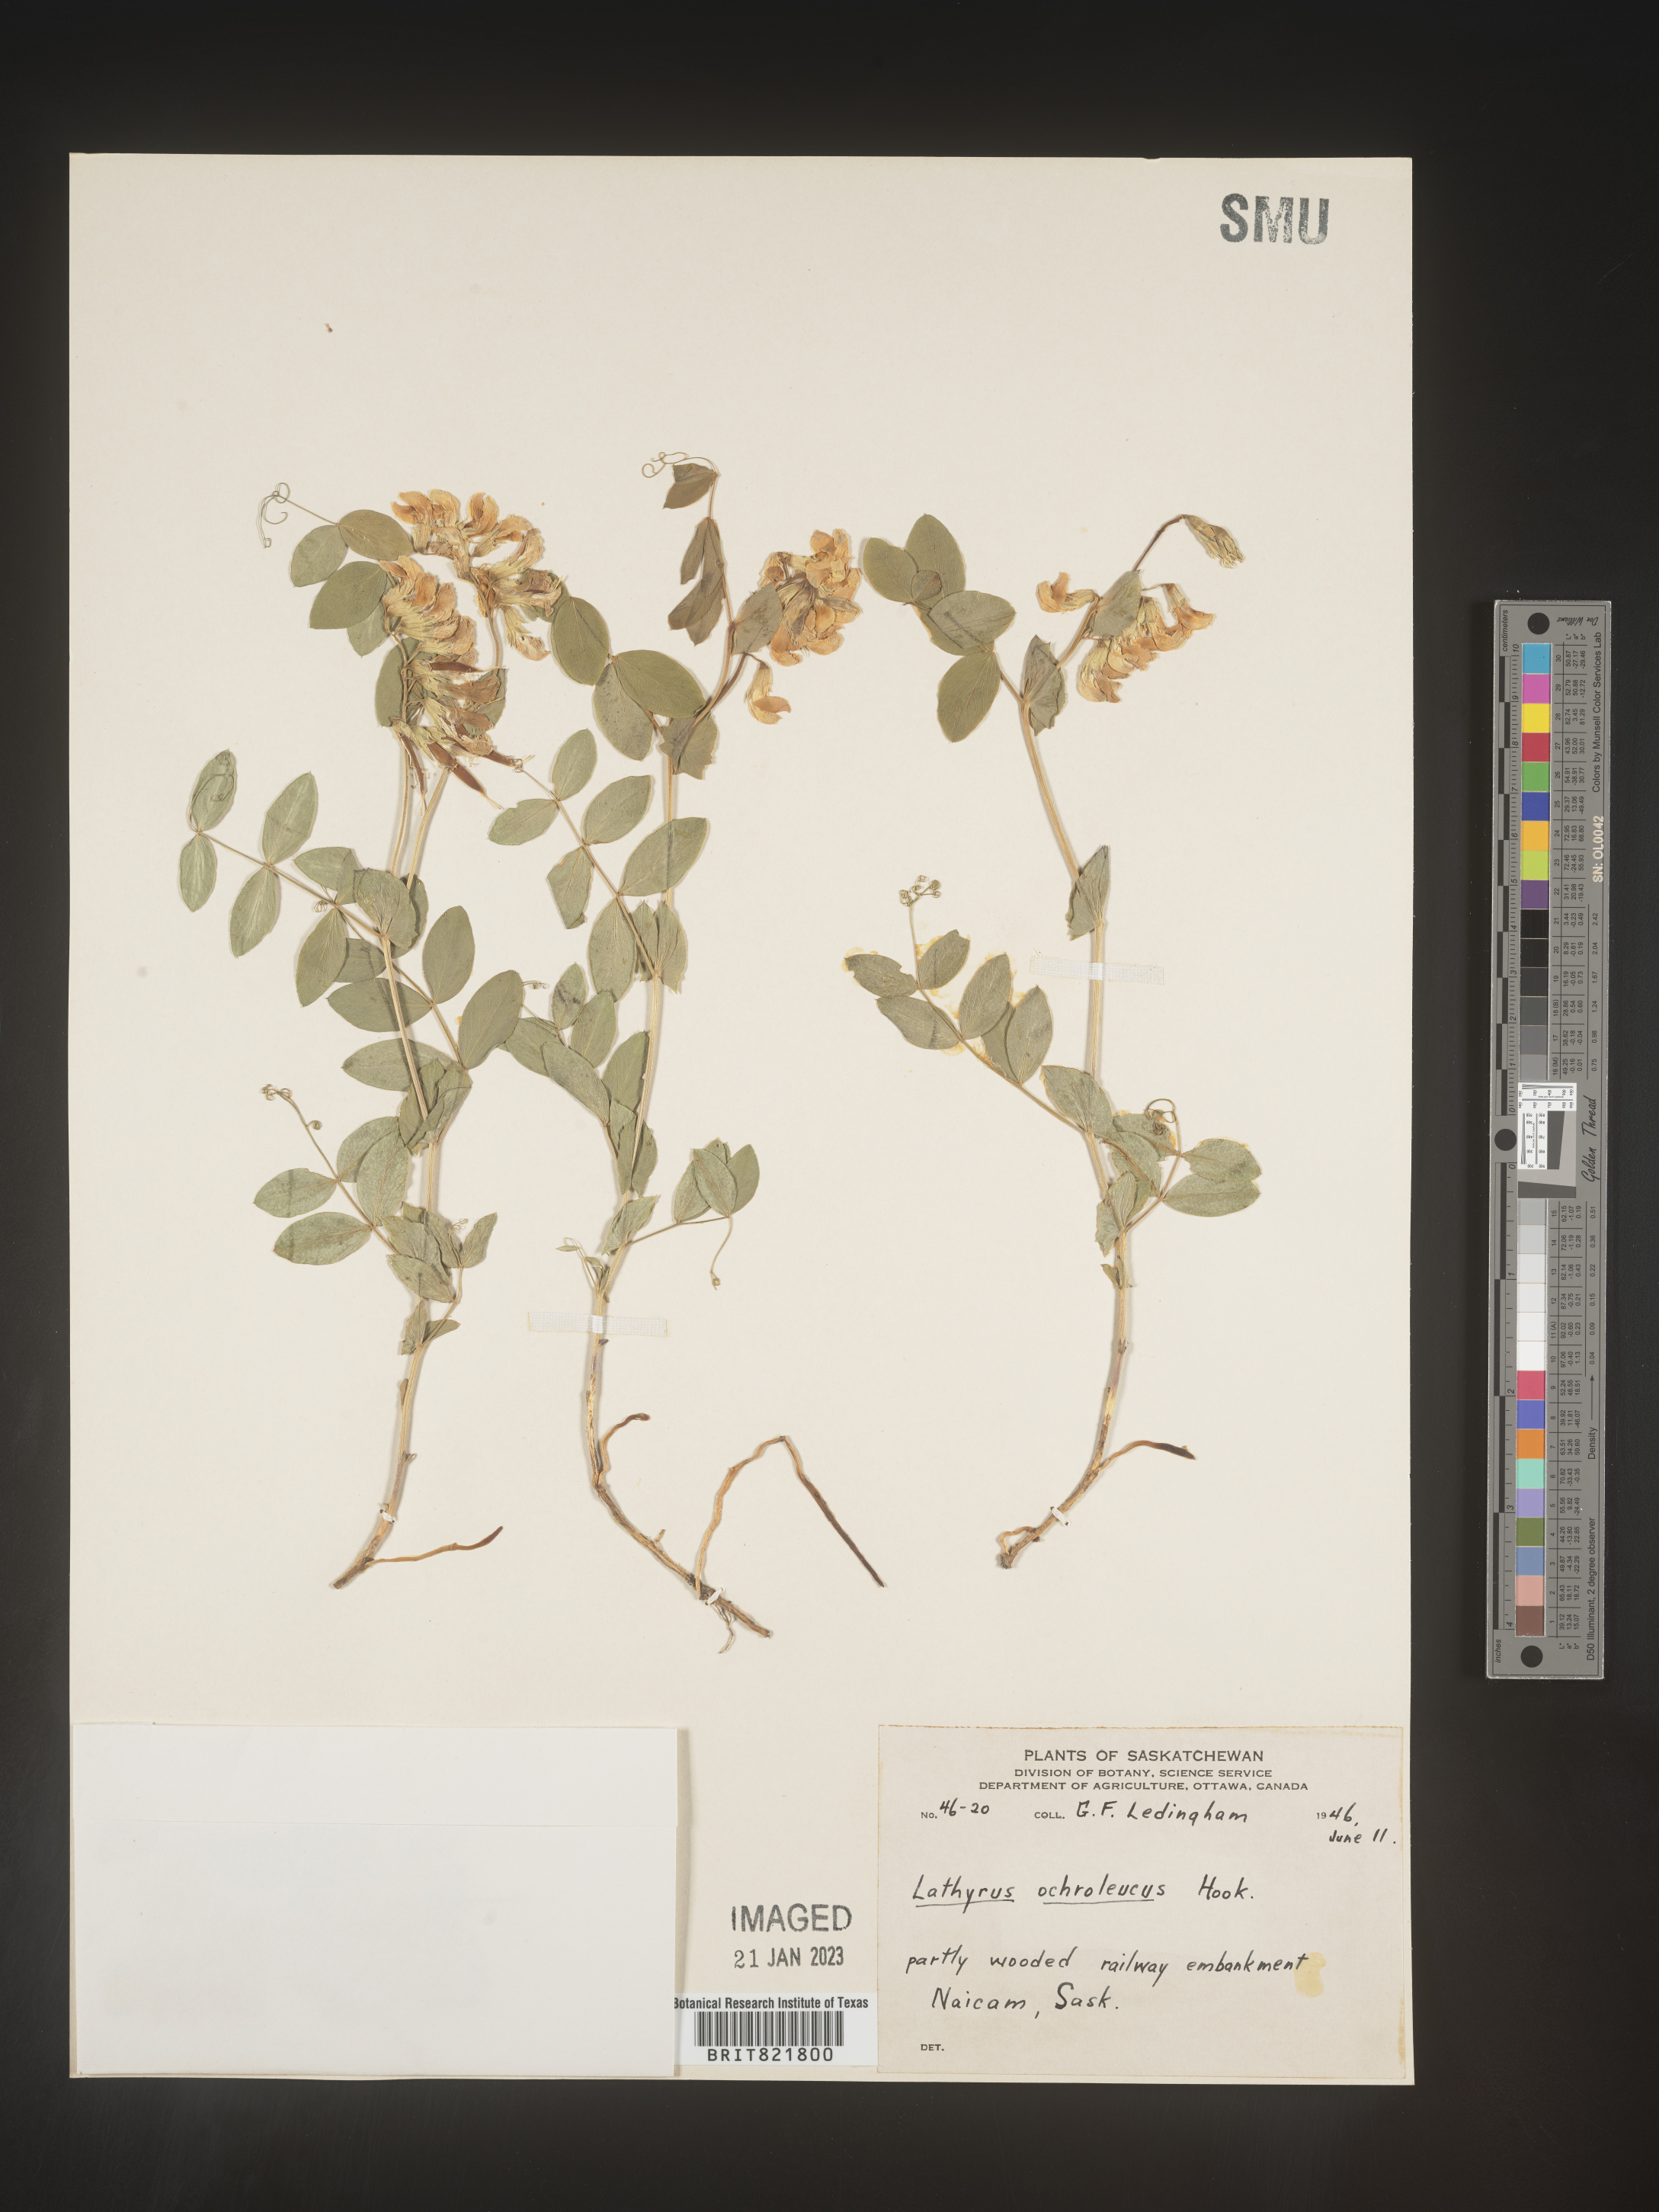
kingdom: Plantae
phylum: Tracheophyta
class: Magnoliopsida
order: Fabales
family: Fabaceae
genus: Lathyrus
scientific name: Lathyrus
